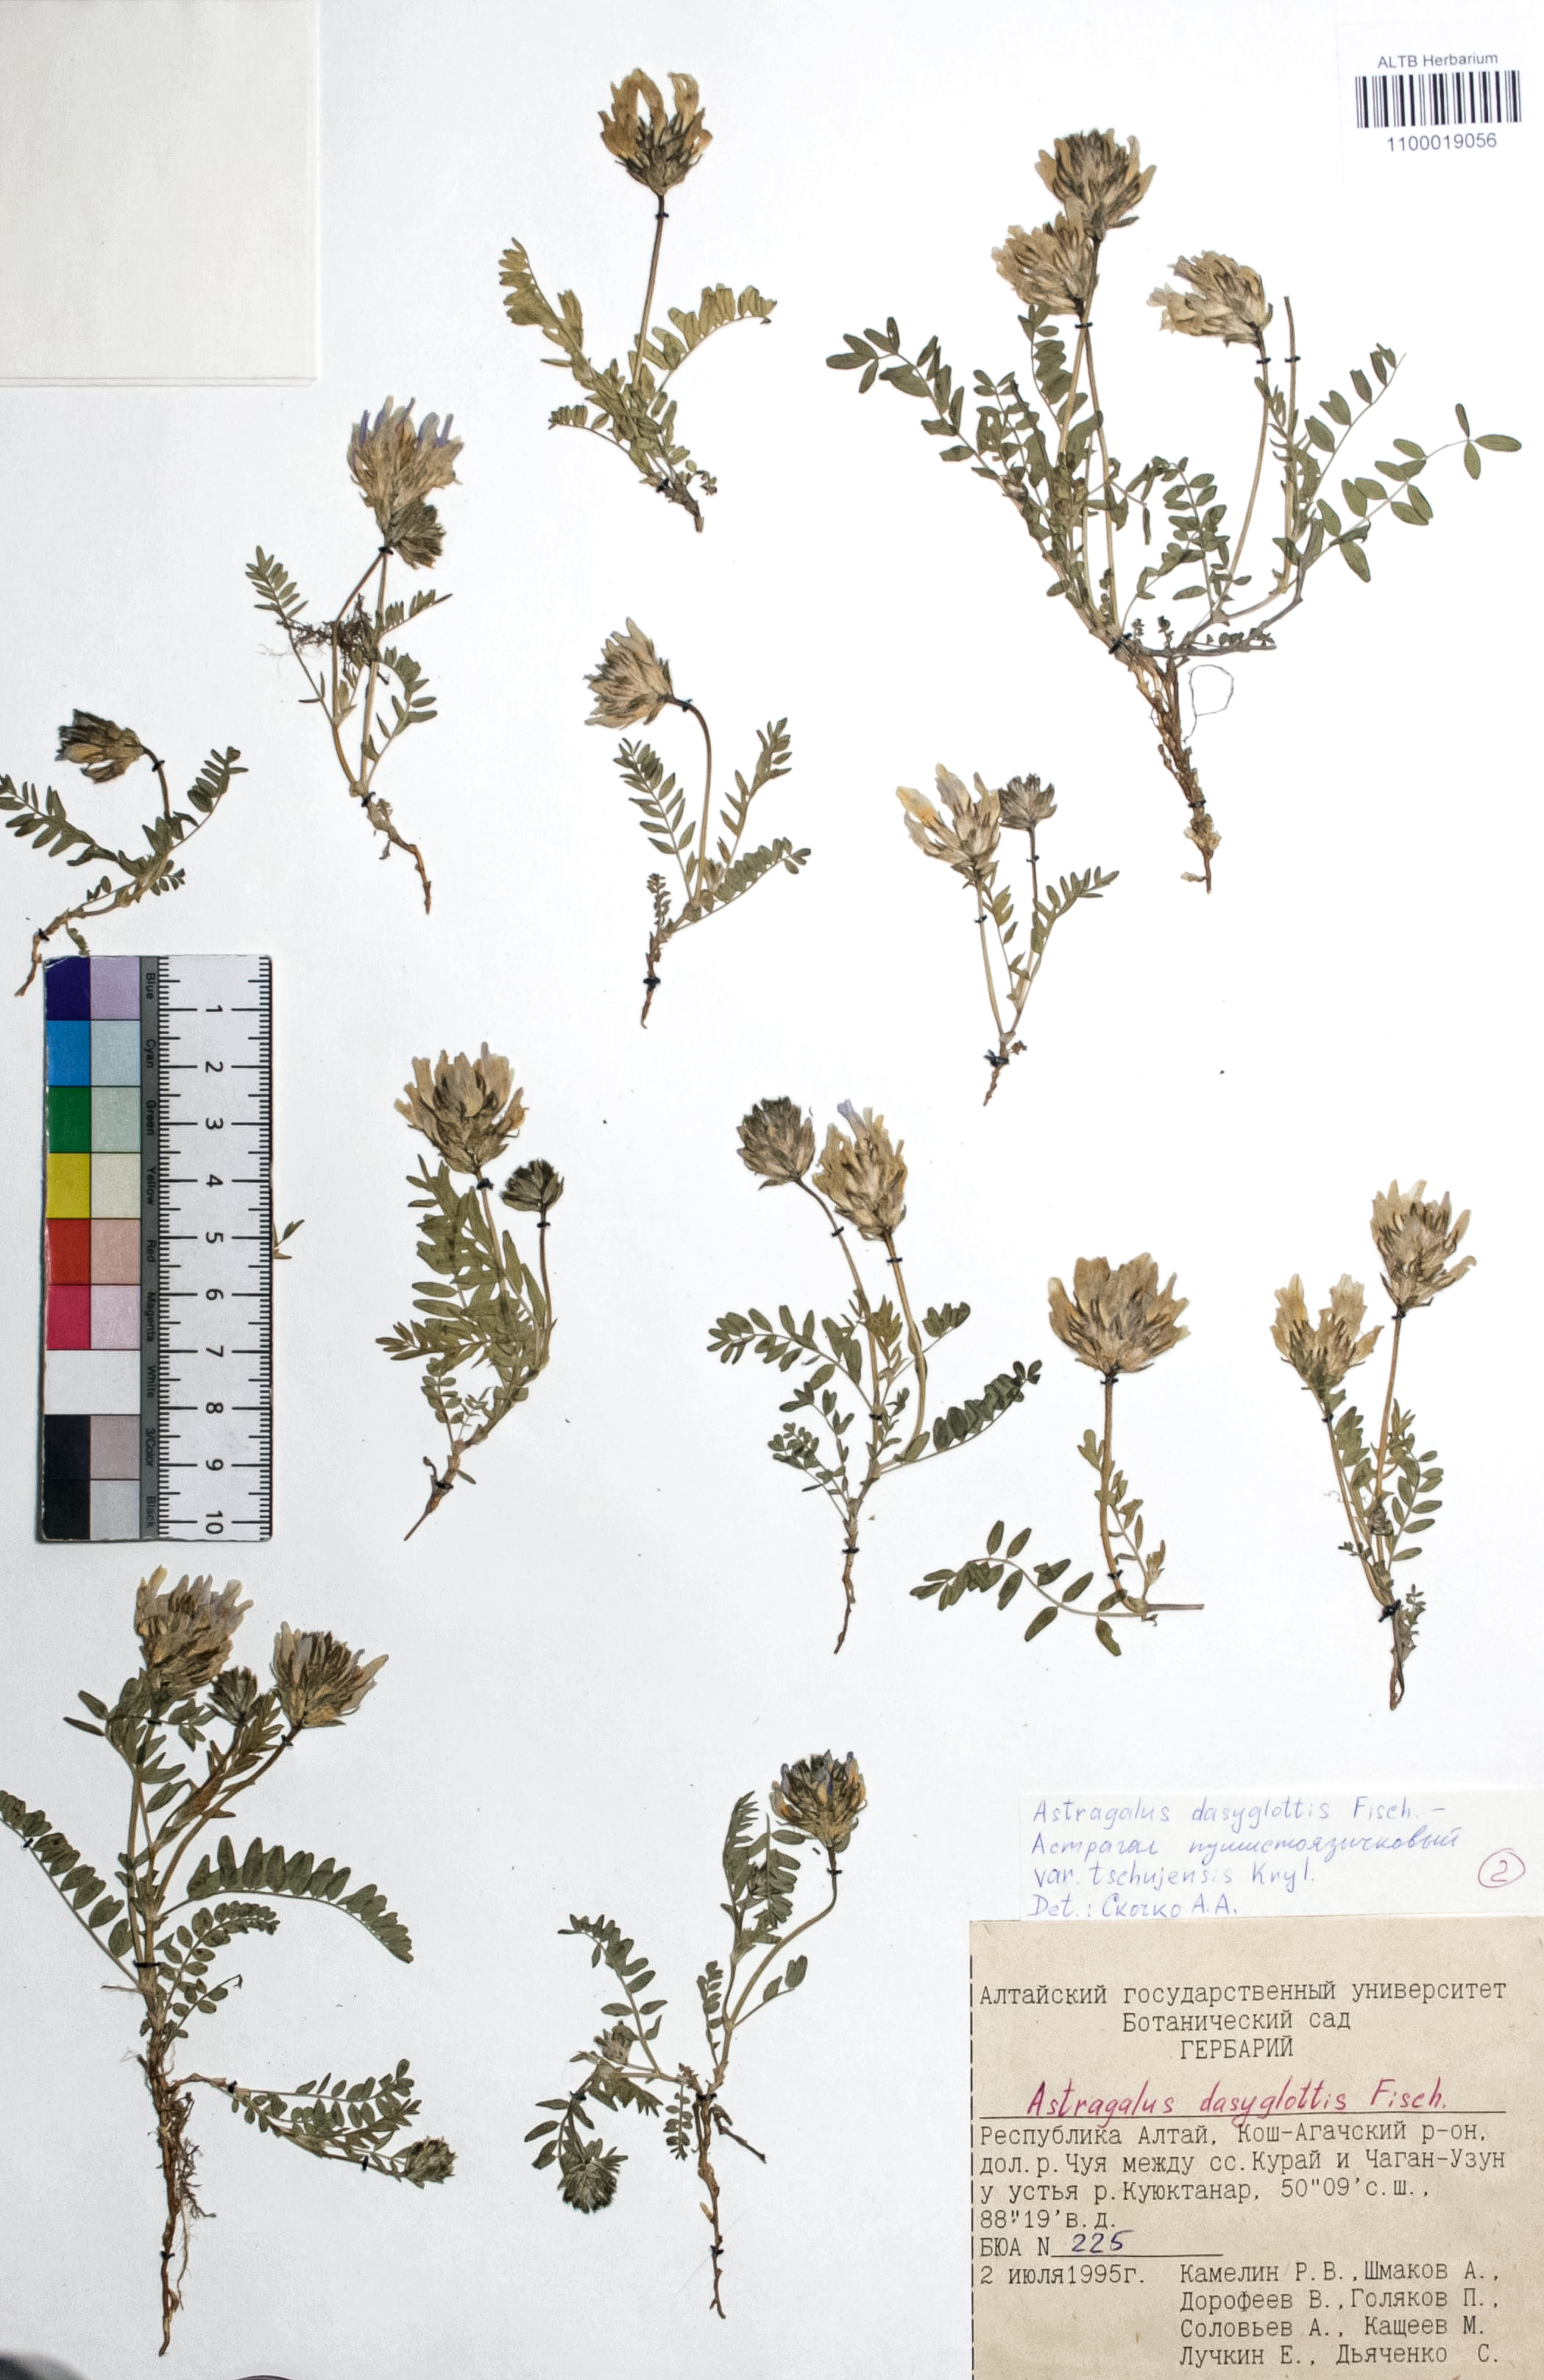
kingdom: Plantae
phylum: Tracheophyta
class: Magnoliopsida
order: Fabales
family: Fabaceae
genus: Astragalus
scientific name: Astragalus agrestis
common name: Field milk-vetch
